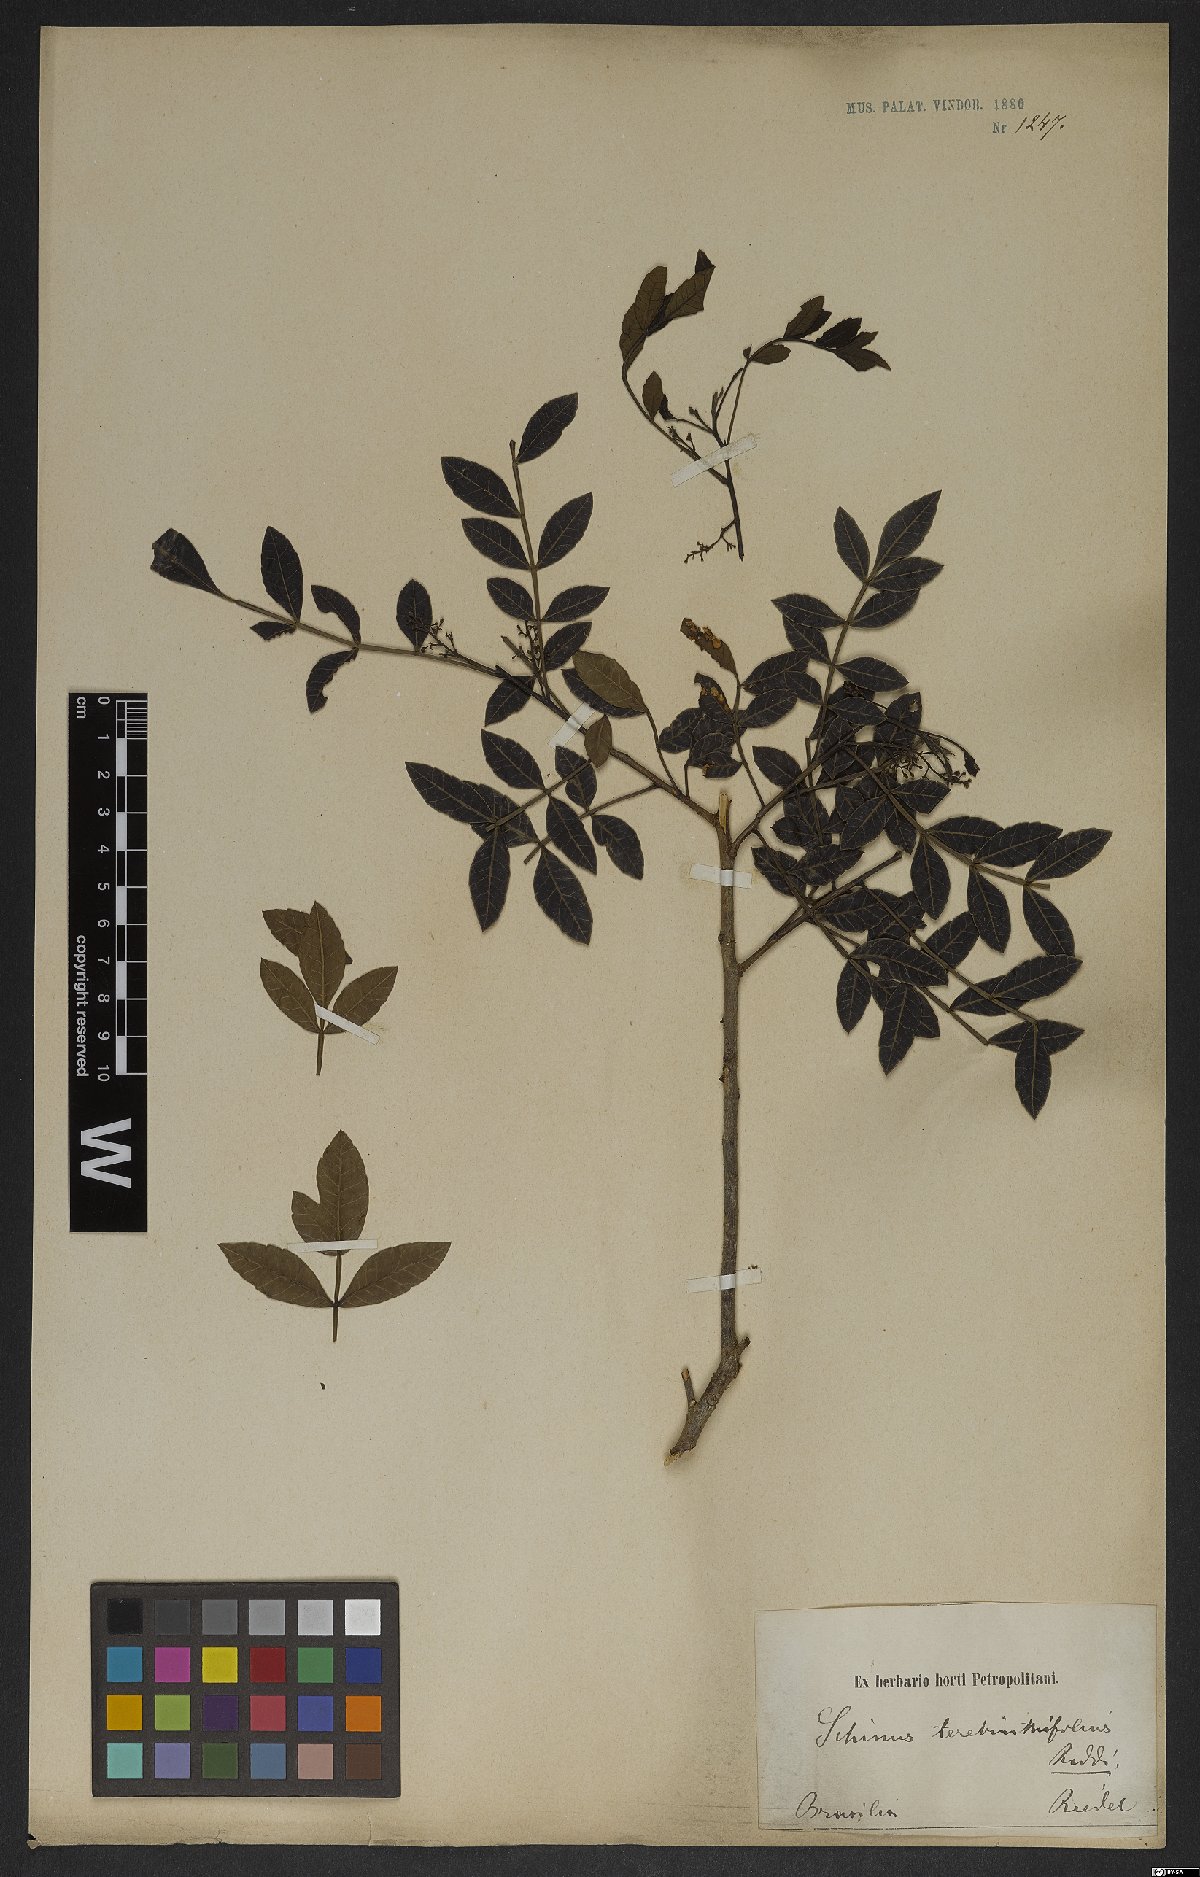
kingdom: Plantae
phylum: Tracheophyta
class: Magnoliopsida
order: Sapindales
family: Anacardiaceae
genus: Schinus
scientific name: Schinus terebinthifolia
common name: Brazilian peppertree
